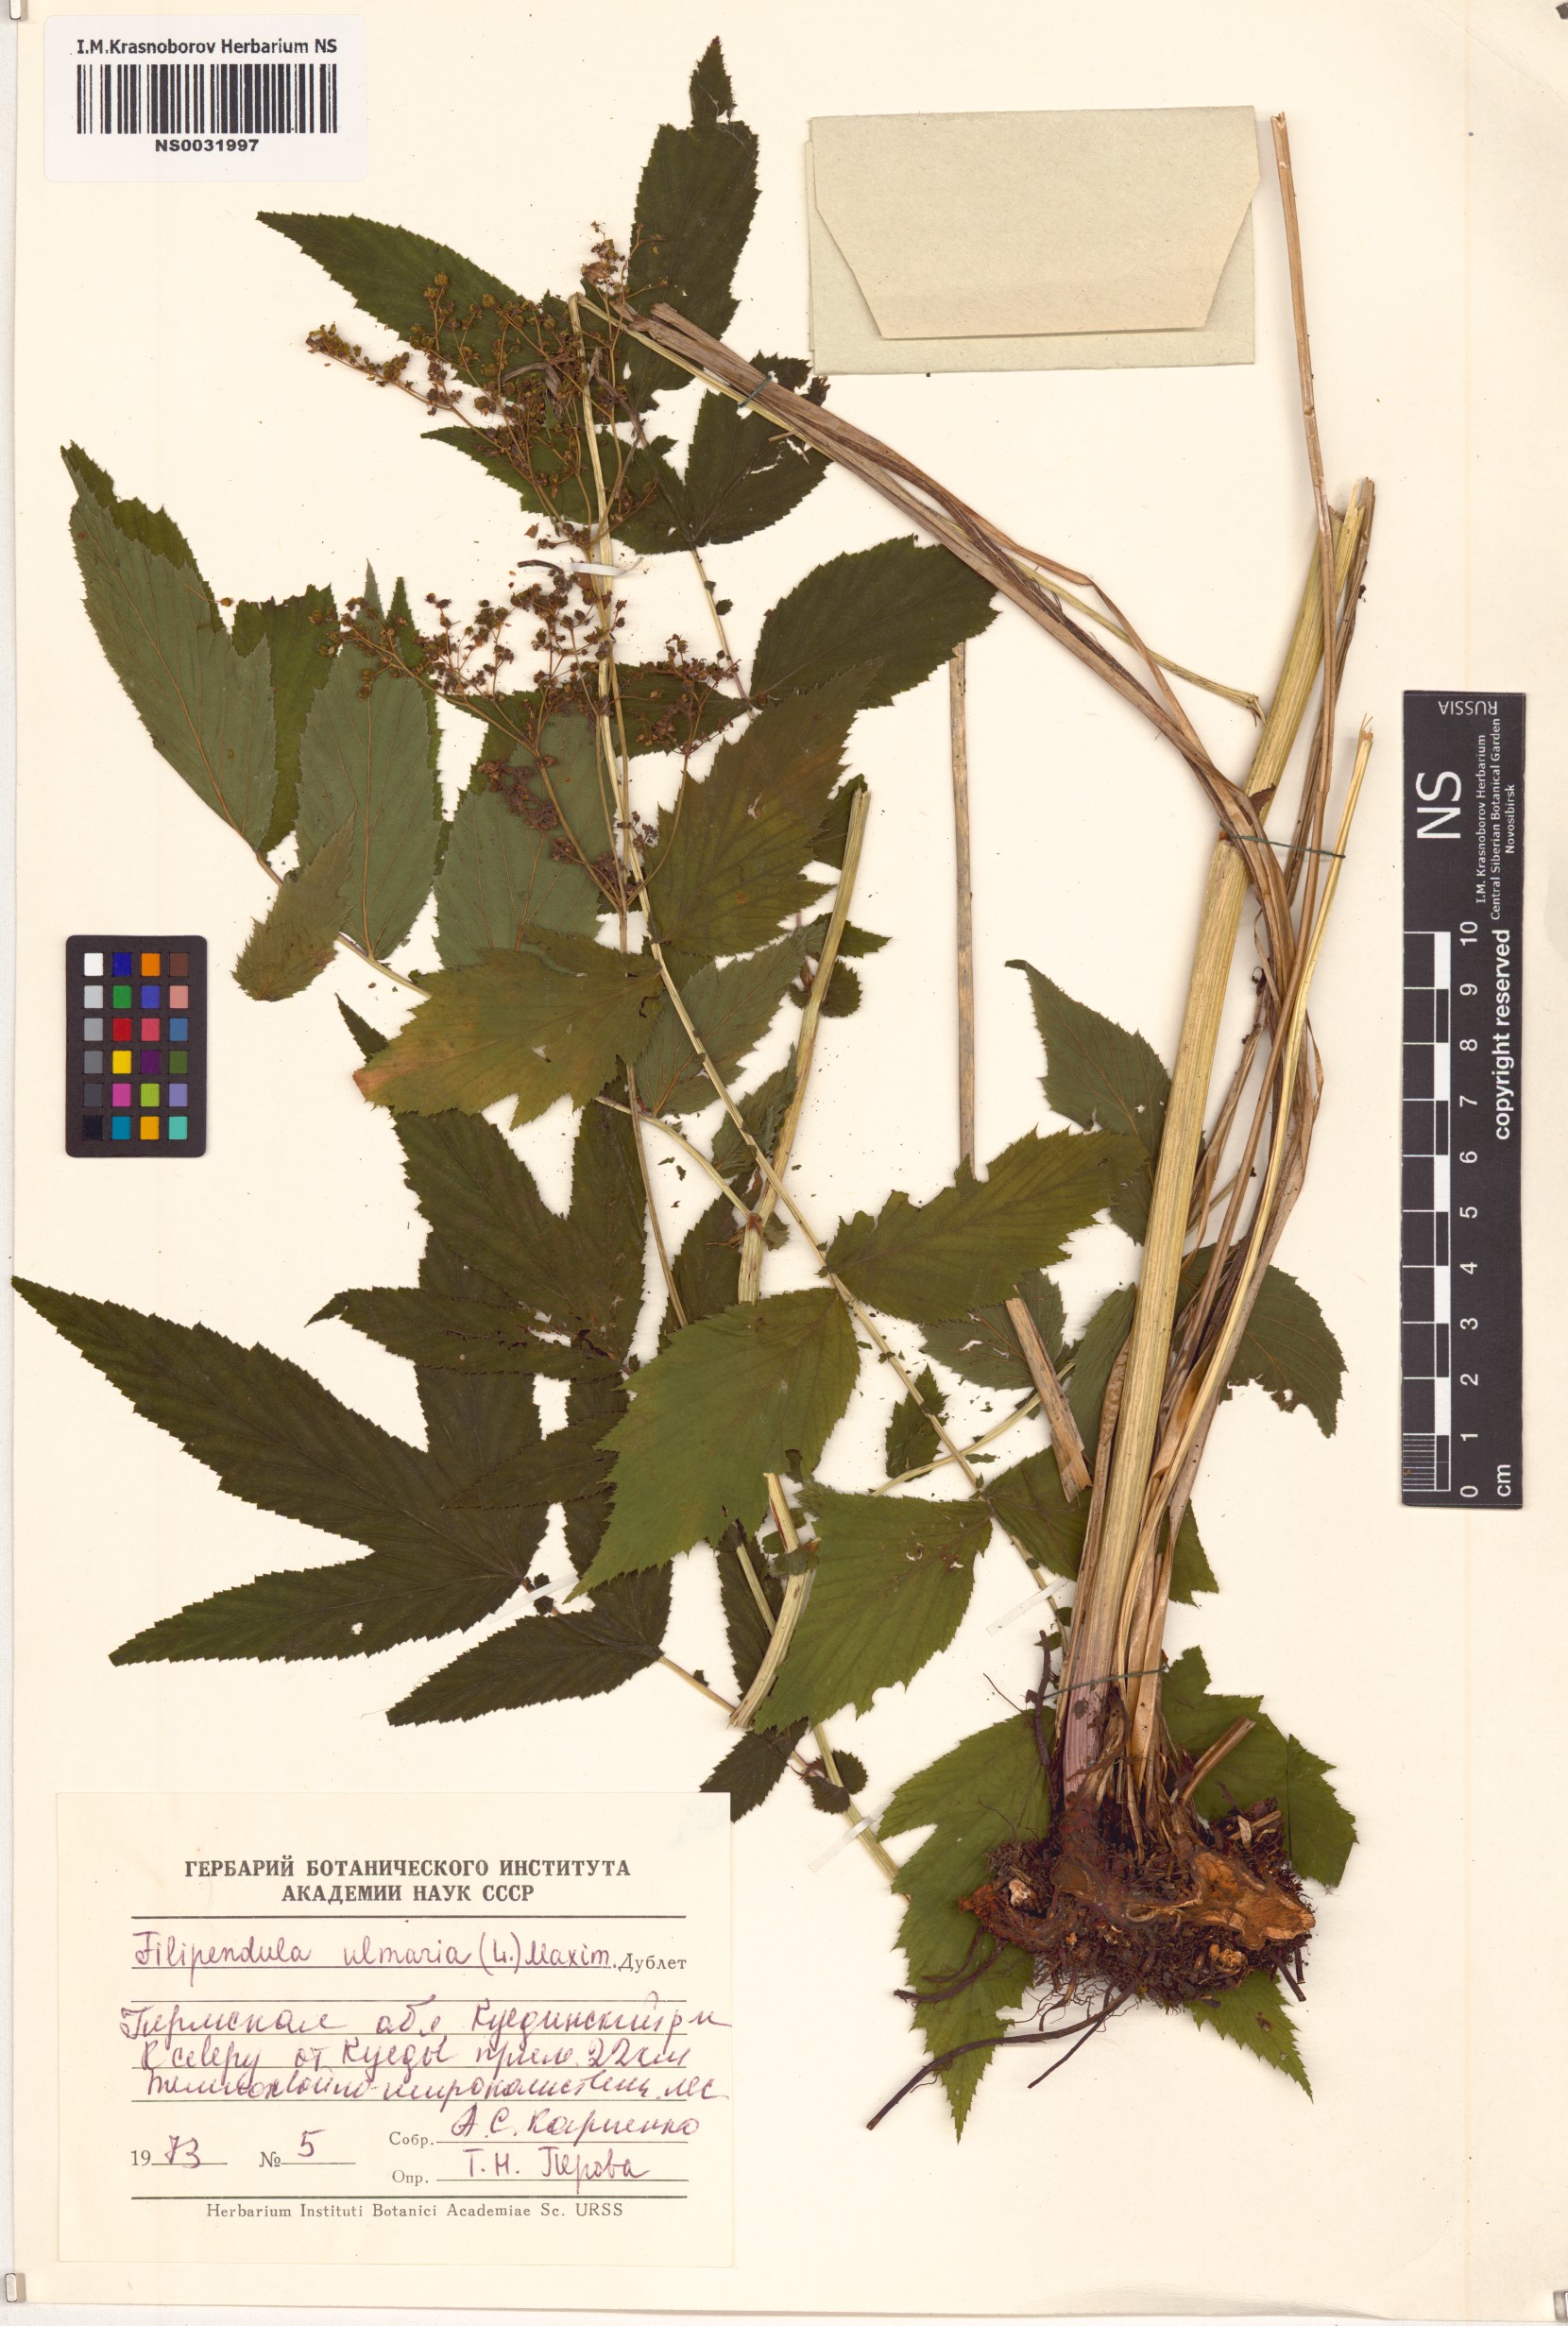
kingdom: Plantae
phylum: Tracheophyta
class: Magnoliopsida
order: Rosales
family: Rosaceae
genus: Filipendula
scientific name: Filipendula ulmaria
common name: Meadowsweet
